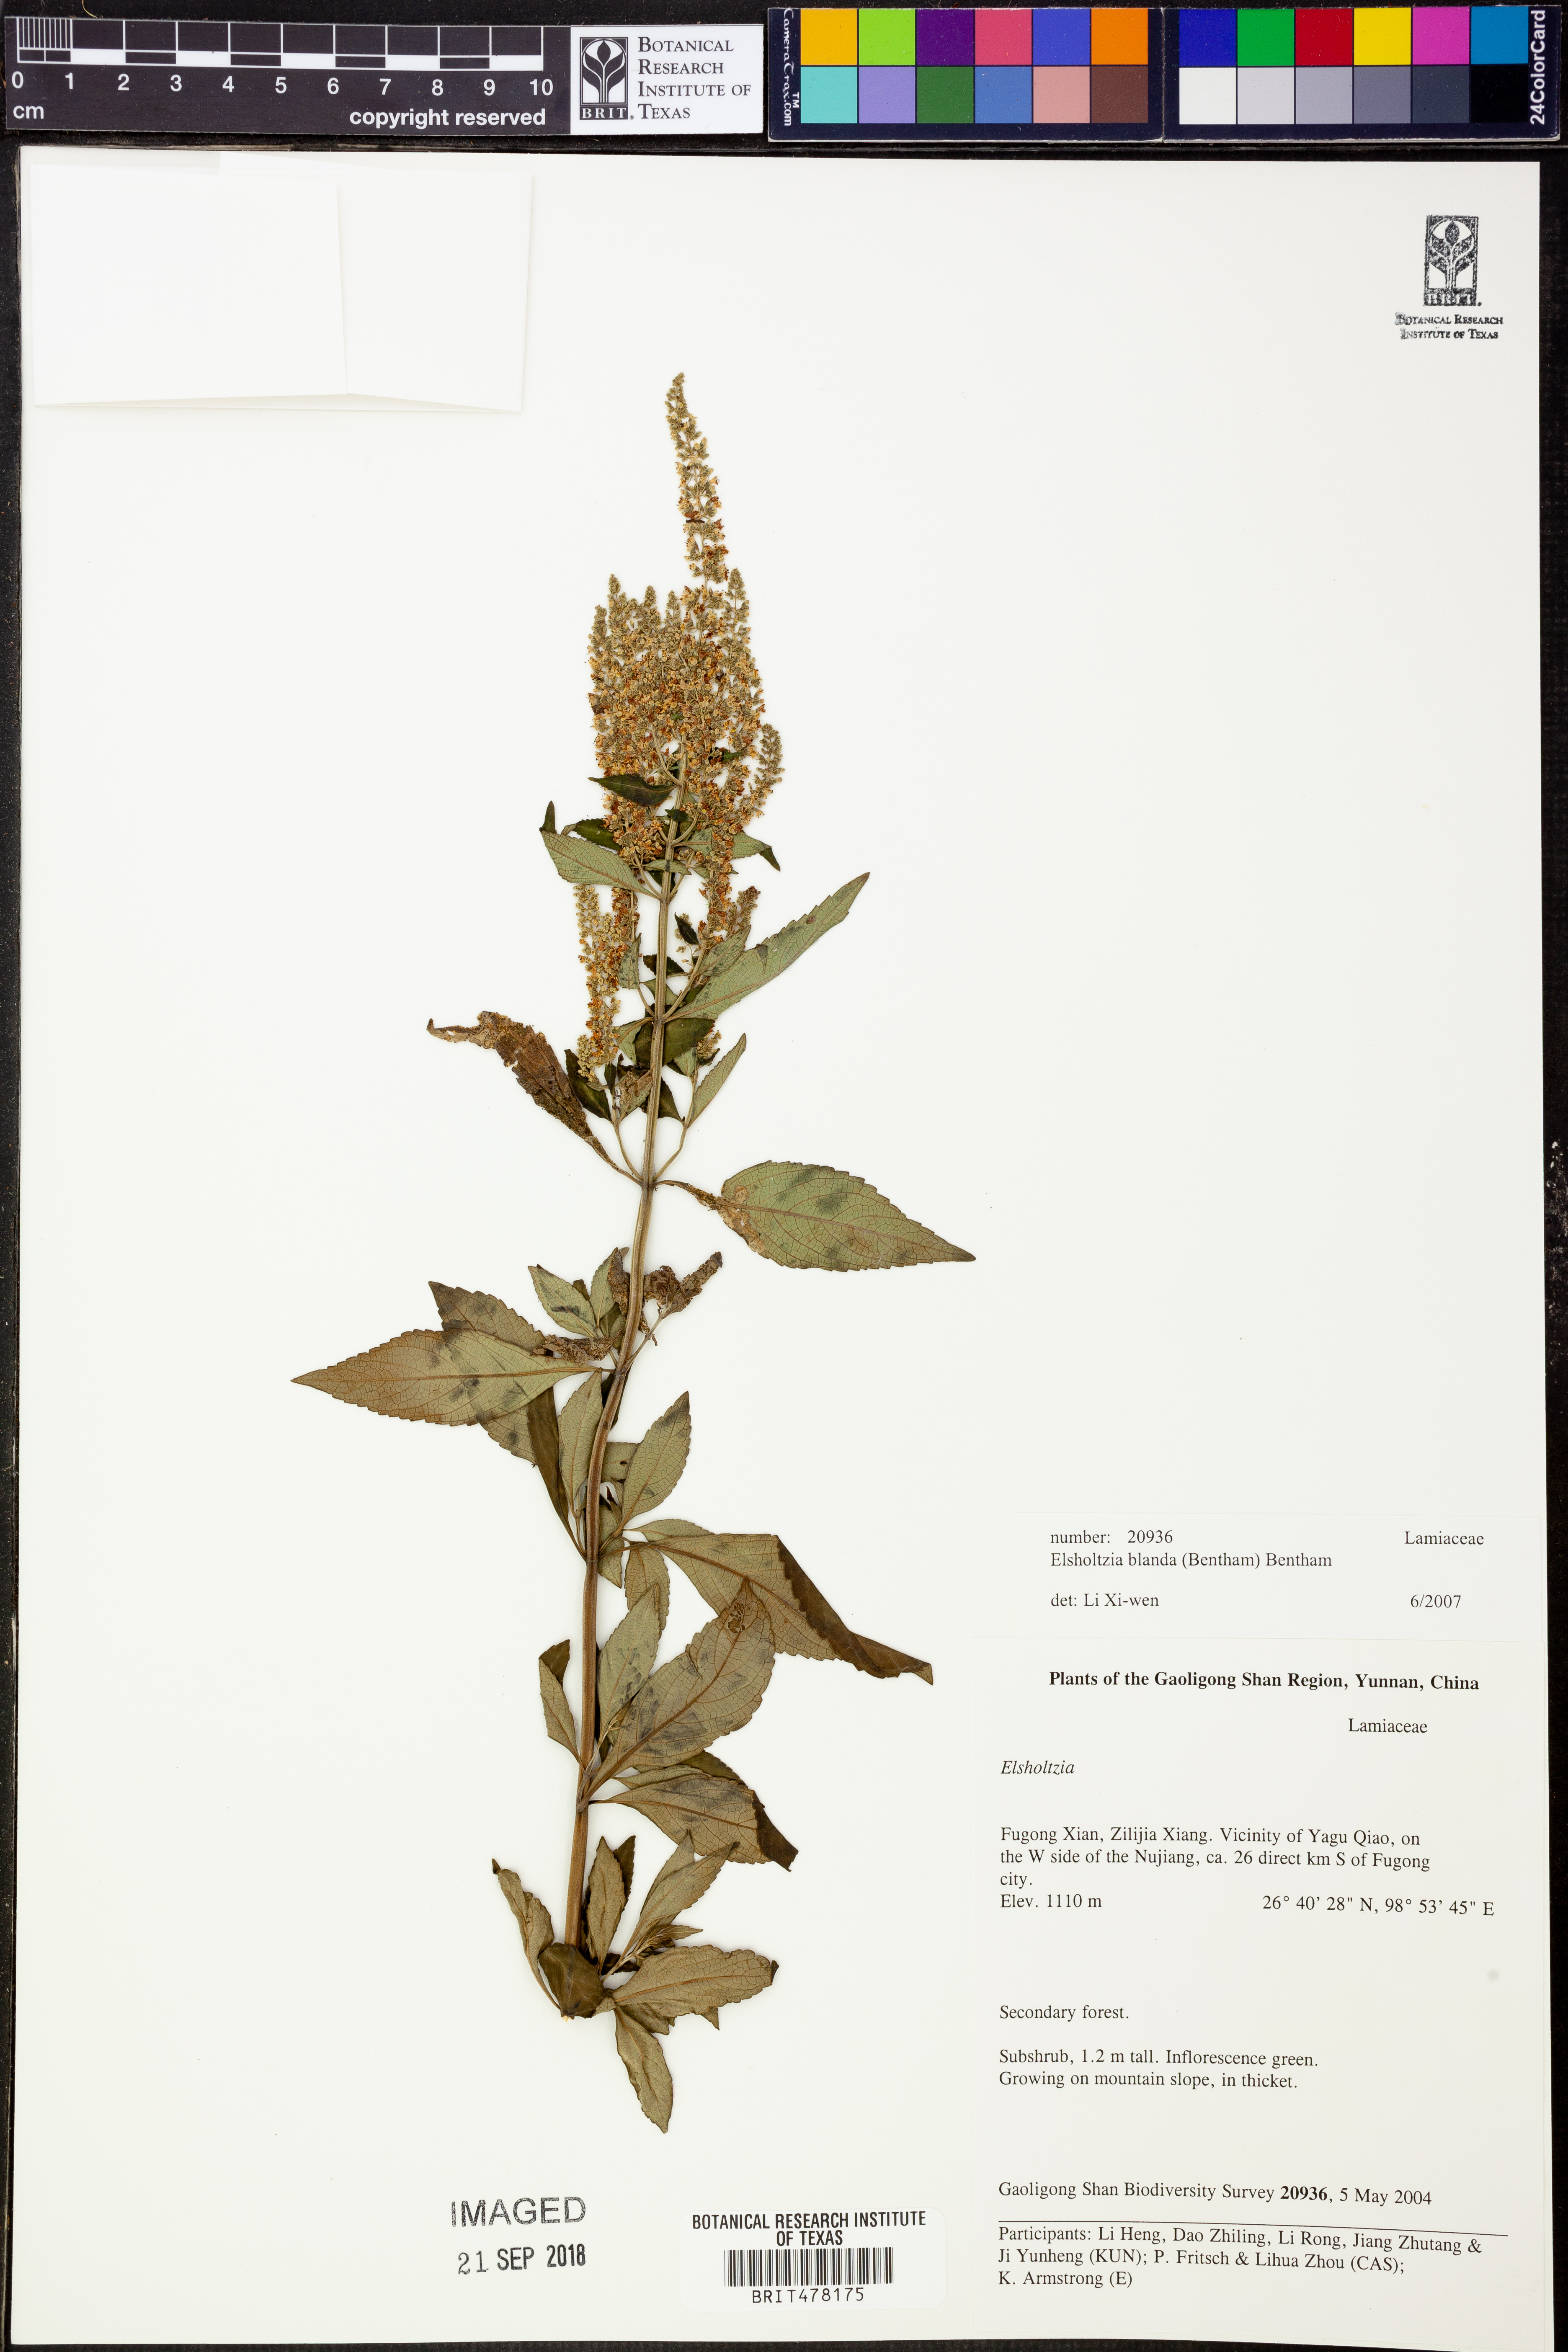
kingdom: Plantae
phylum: Tracheophyta
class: Magnoliopsida
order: Lamiales
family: Lamiaceae
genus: Elsholtzia
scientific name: Elsholtzia blanda
